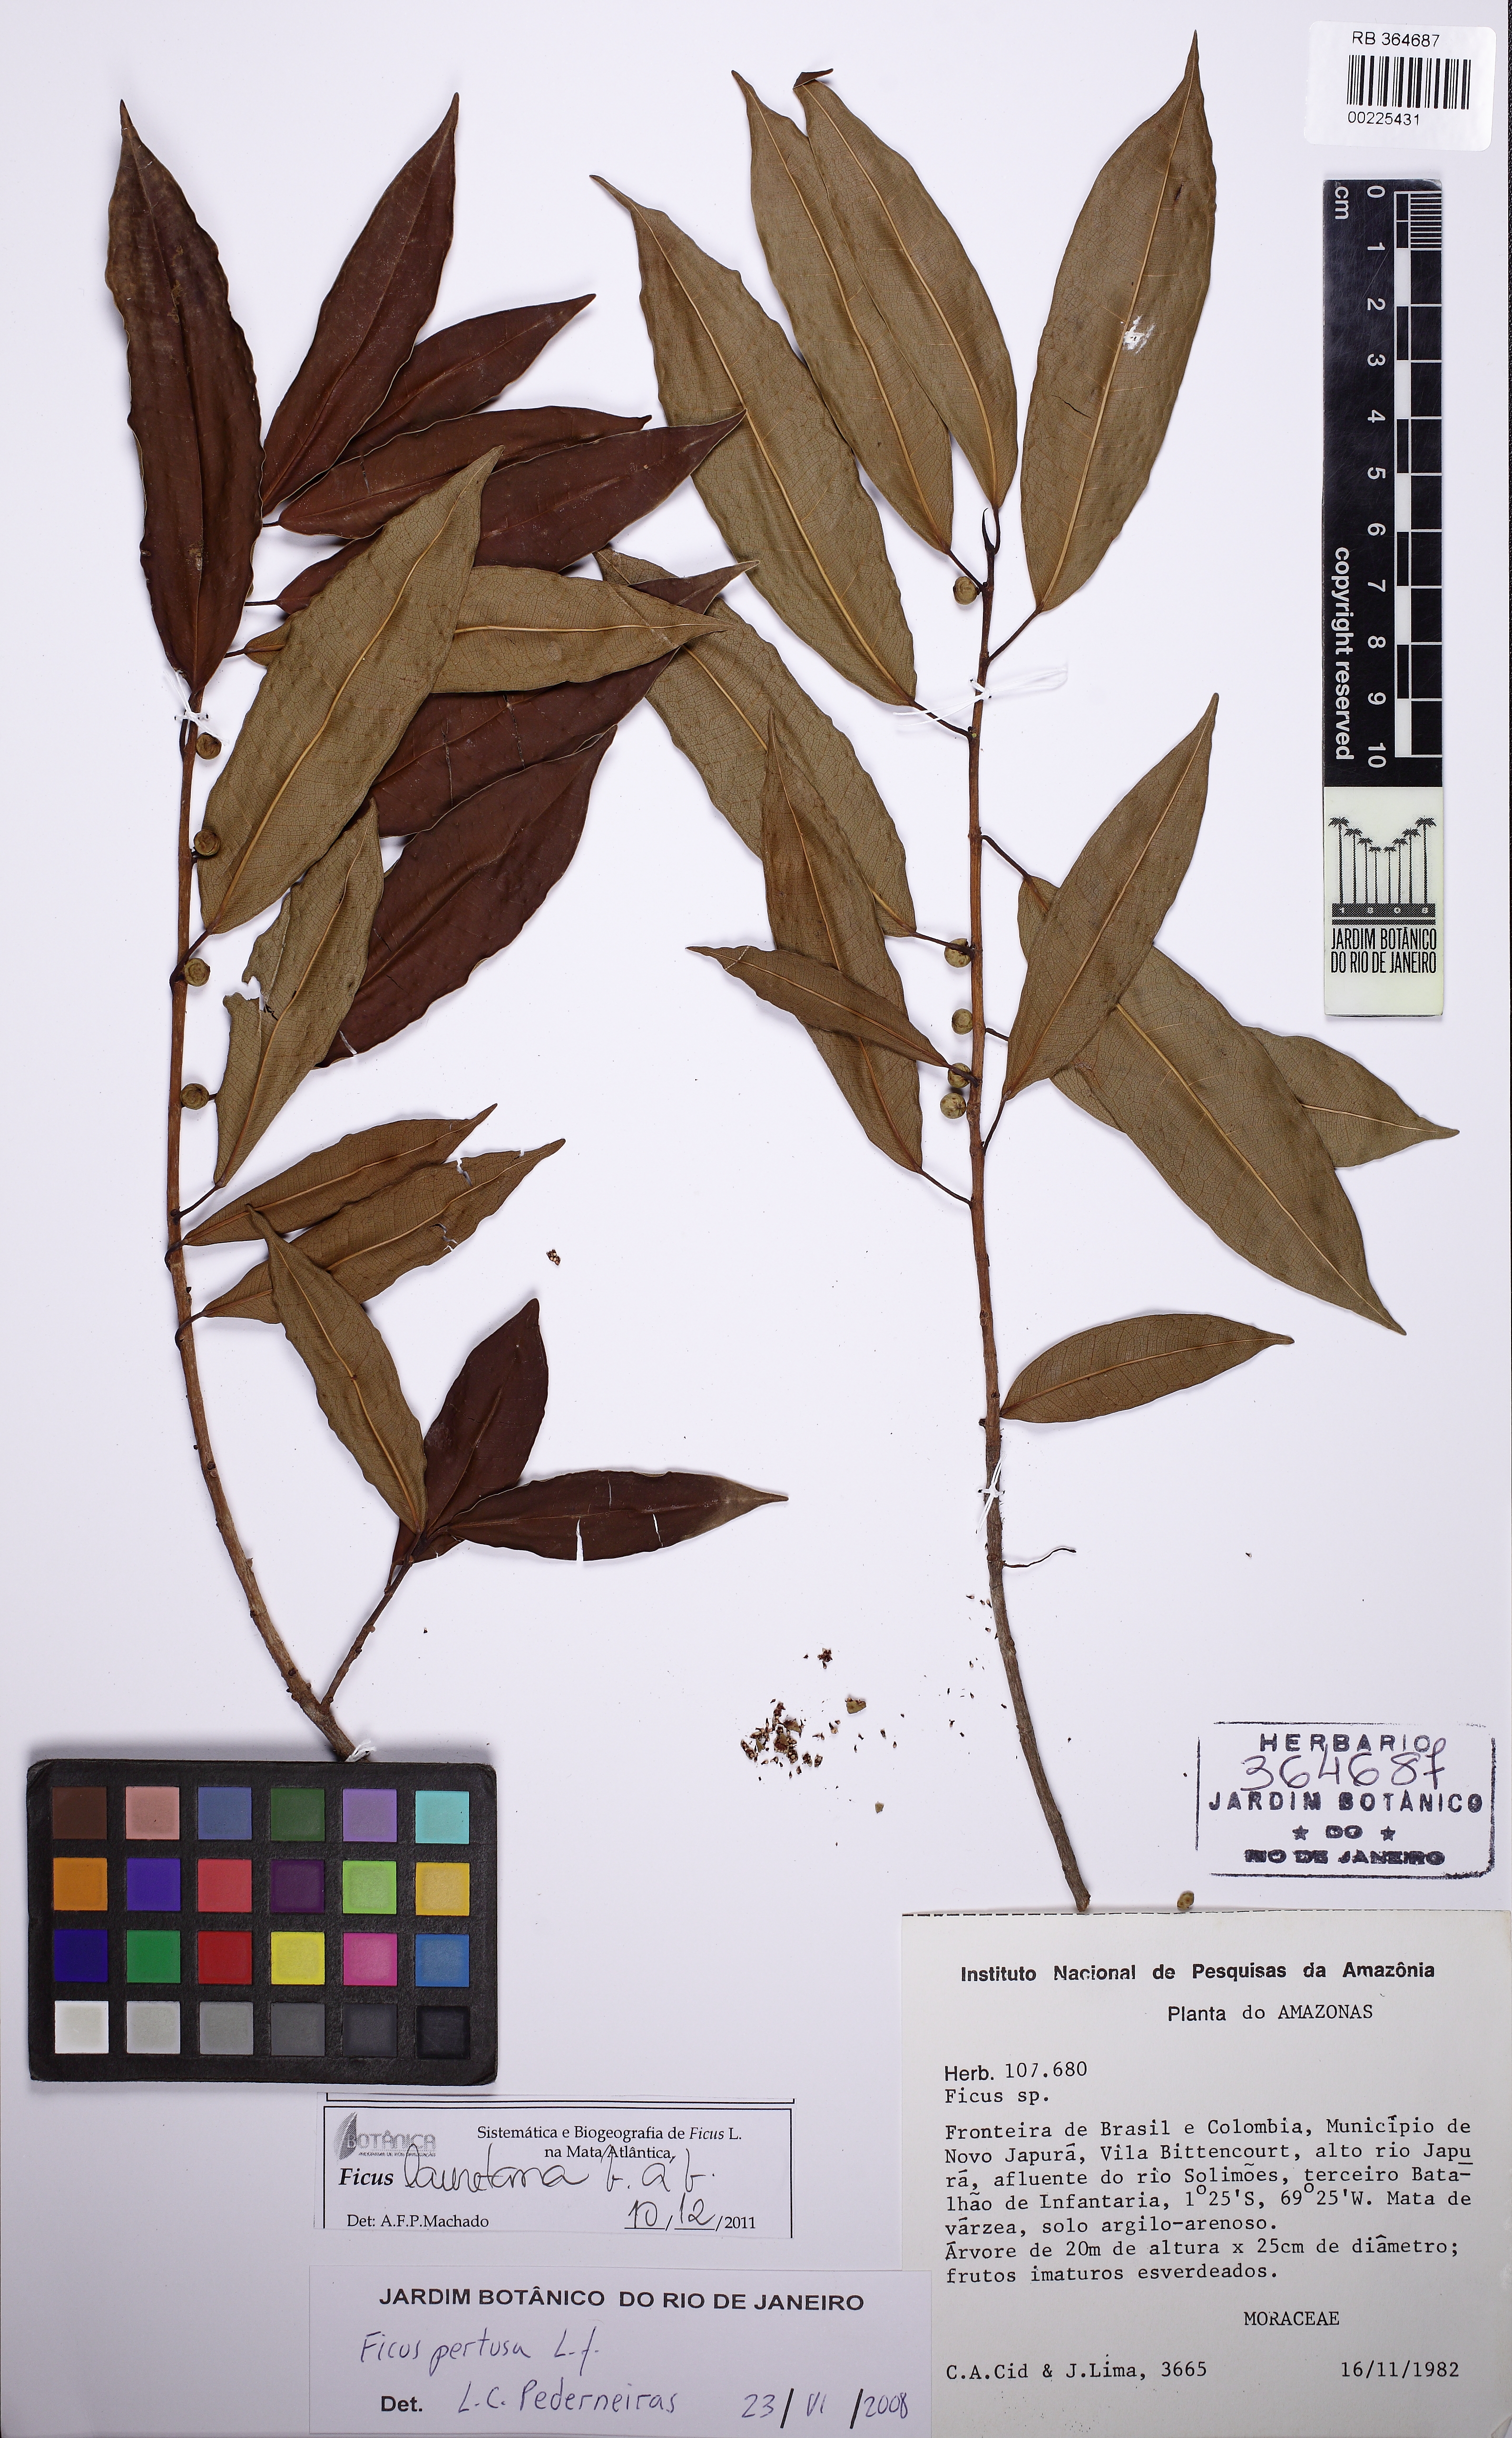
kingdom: Plantae
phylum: Tracheophyta
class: Magnoliopsida
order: Rosales
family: Moraceae
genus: Ficus
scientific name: Ficus lauretana
